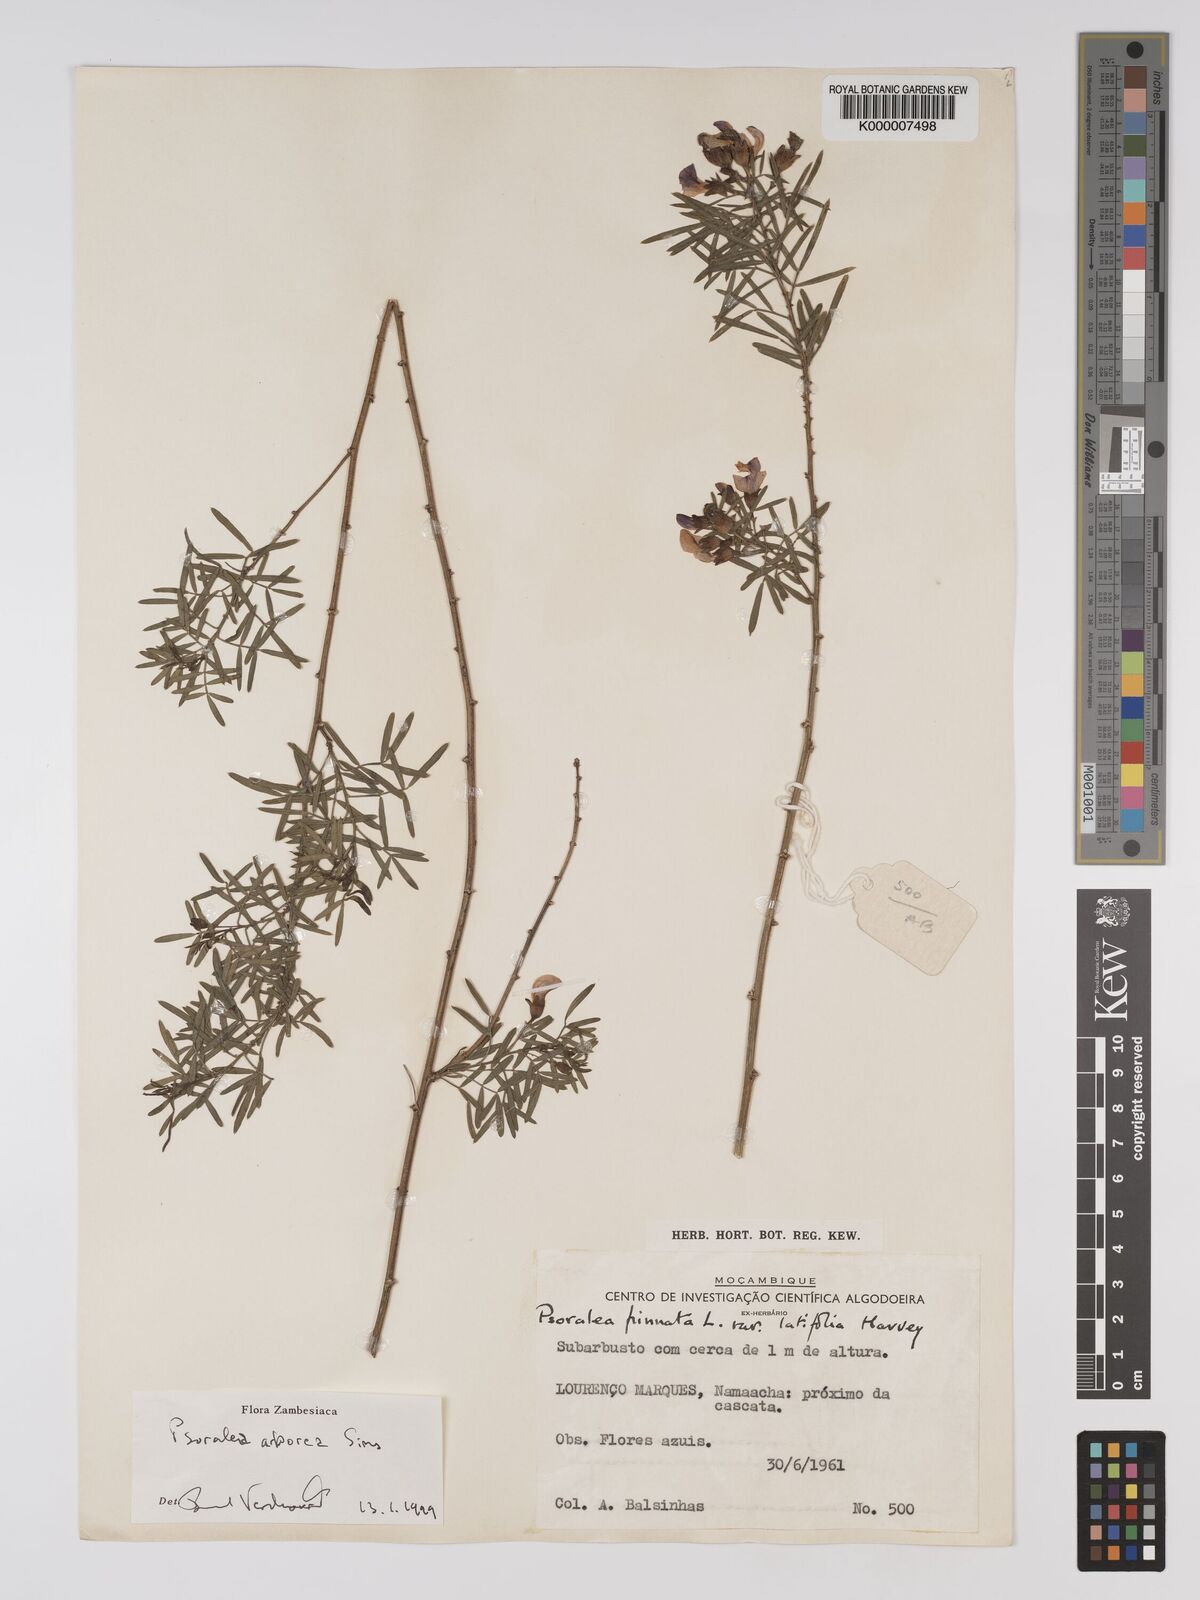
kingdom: Plantae
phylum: Tracheophyta
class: Magnoliopsida
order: Fabales
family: Fabaceae
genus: Psoralea
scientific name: Psoralea arborea
